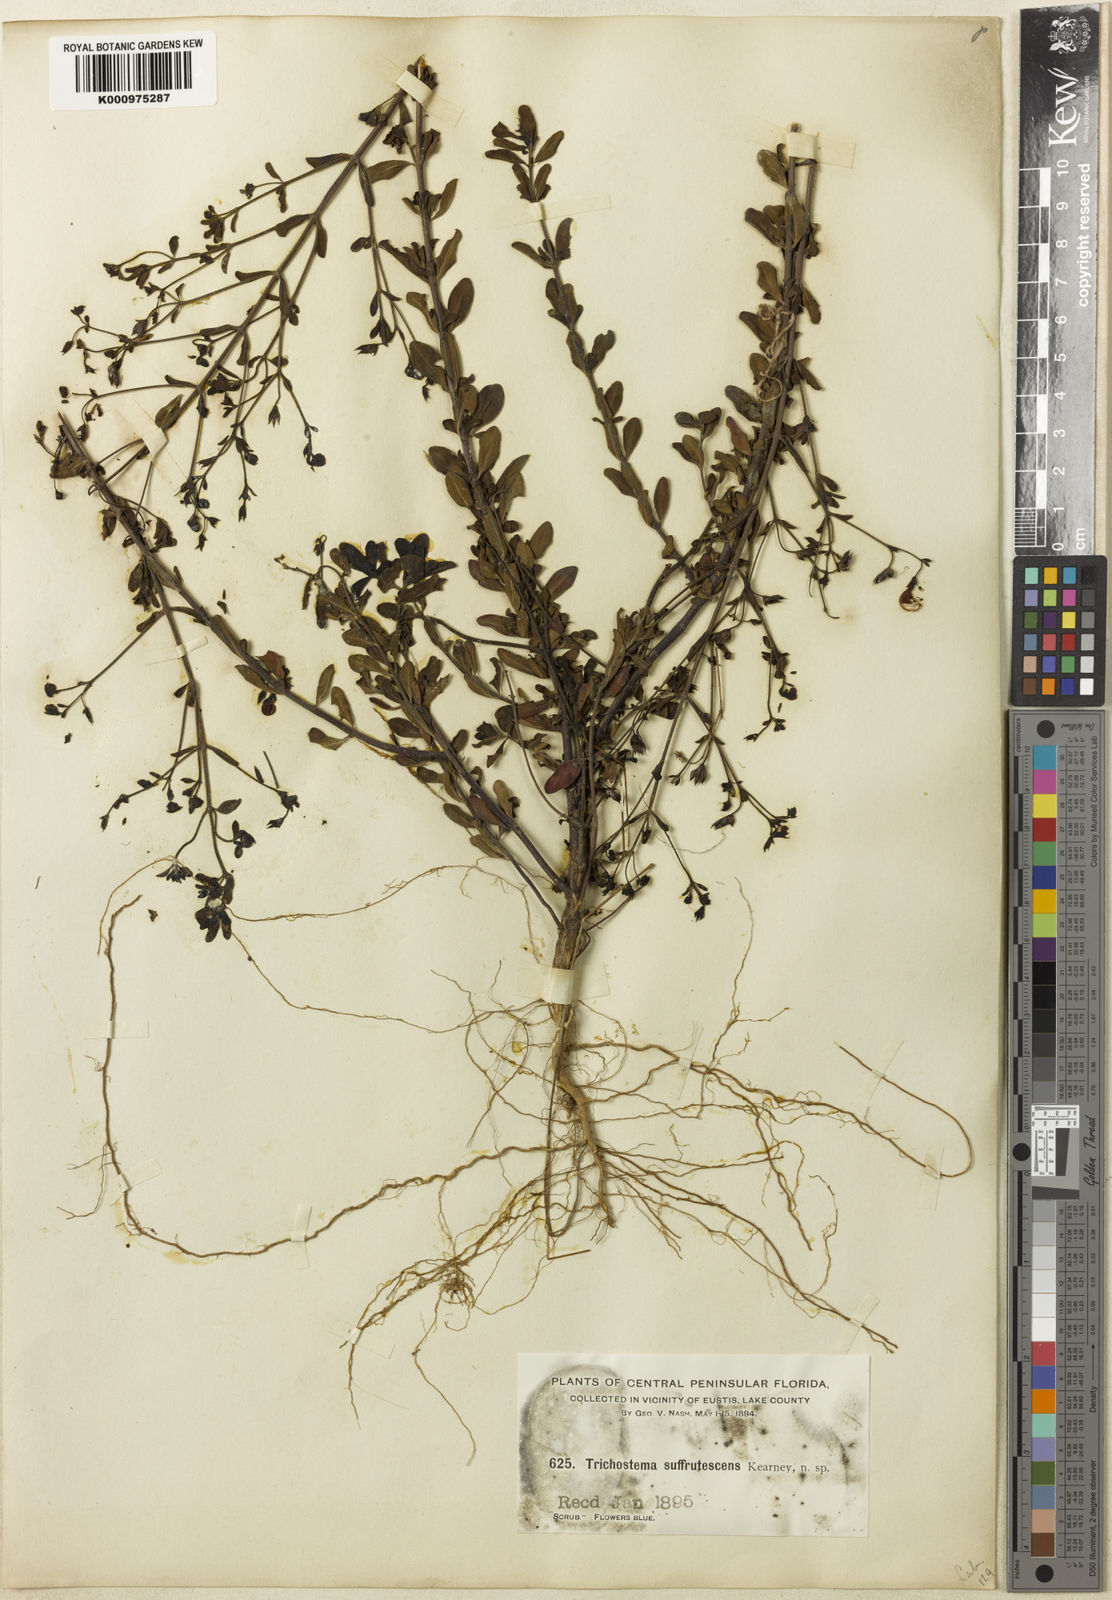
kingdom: Plantae
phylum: Tracheophyta
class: Magnoliopsida
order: Lamiales
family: Lamiaceae
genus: Trichostema
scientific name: Trichostema suffrutescens
